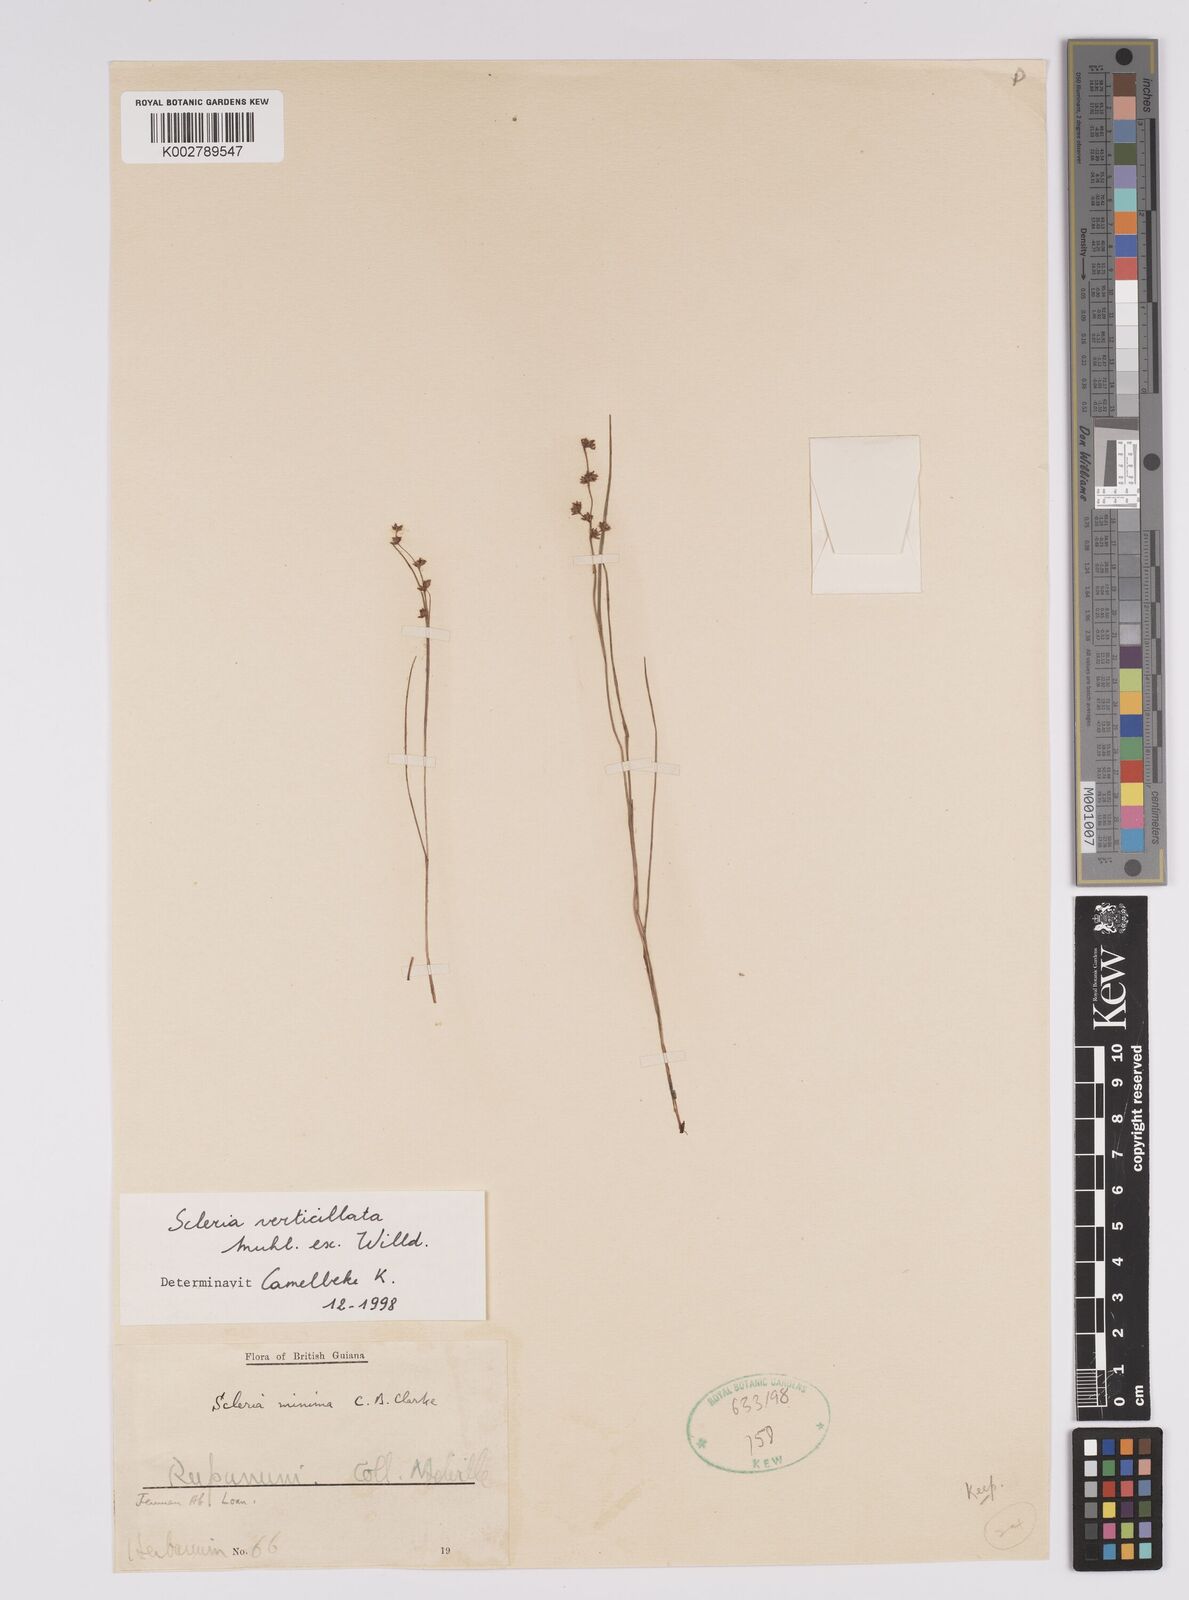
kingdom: Plantae
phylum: Tracheophyta
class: Liliopsida
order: Poales
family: Cyperaceae
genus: Scleria
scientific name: Scleria pusilla
